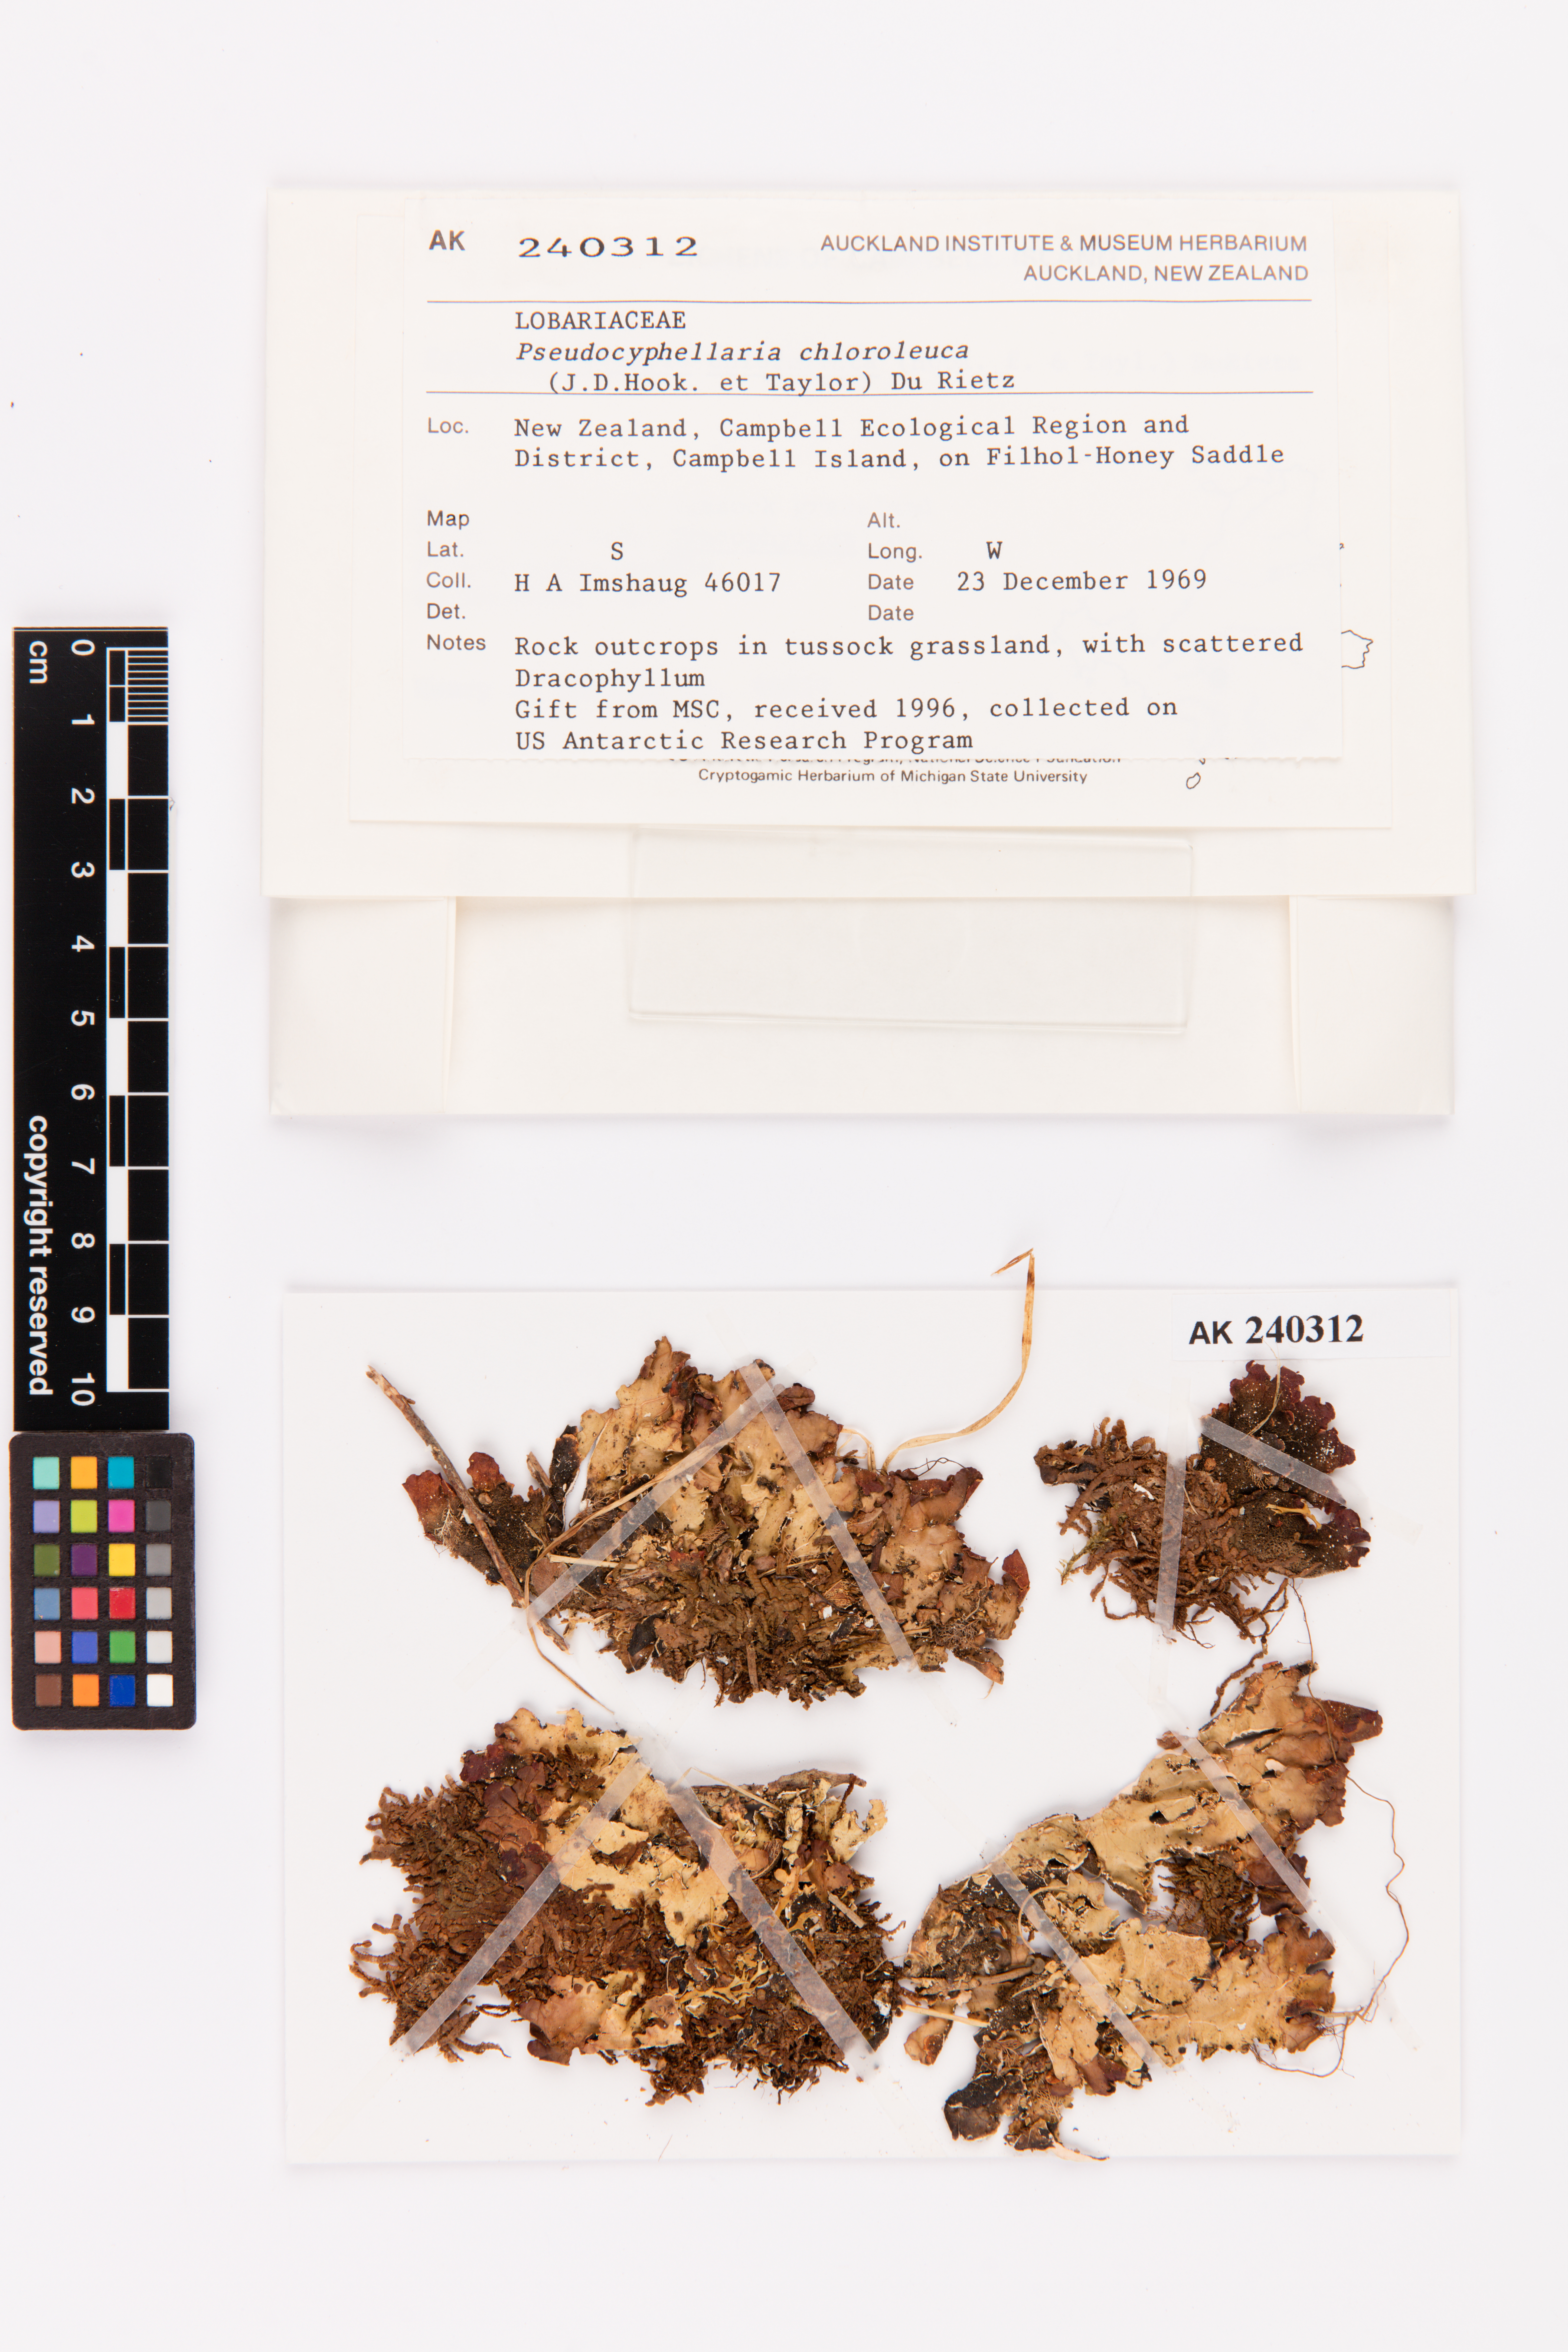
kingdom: Fungi
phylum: Ascomycota
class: Lecanoromycetes
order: Peltigerales
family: Lobariaceae
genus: Pseudocyphellaria
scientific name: Pseudocyphellaria chloroleuca
